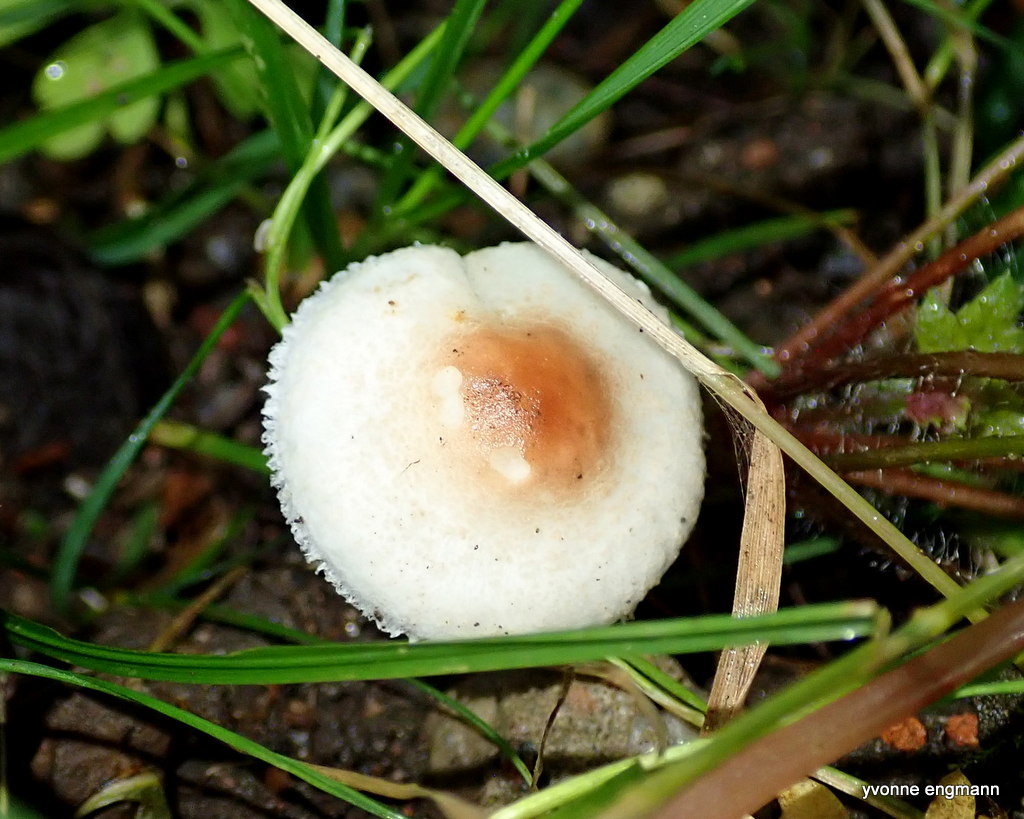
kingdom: Fungi
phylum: Basidiomycota
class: Agaricomycetes
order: Agaricales
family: Agaricaceae
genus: Lepiota
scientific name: Lepiota cristata
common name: stinkende parasolhat
